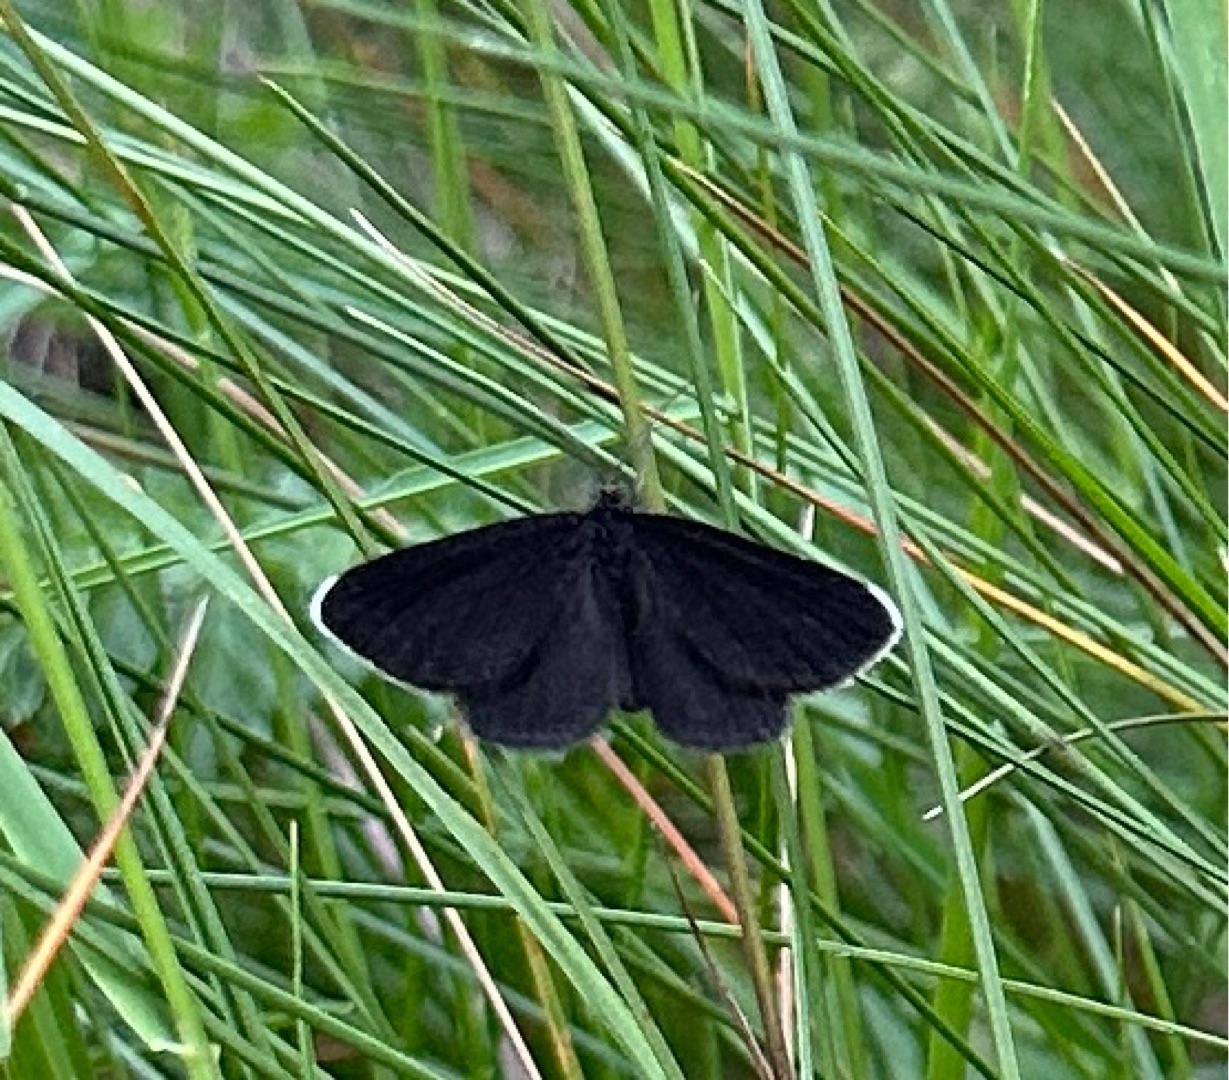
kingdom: Animalia
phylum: Arthropoda
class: Insecta
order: Lepidoptera
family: Geometridae
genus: Odezia
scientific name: Odezia atrata
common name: Sort måler
